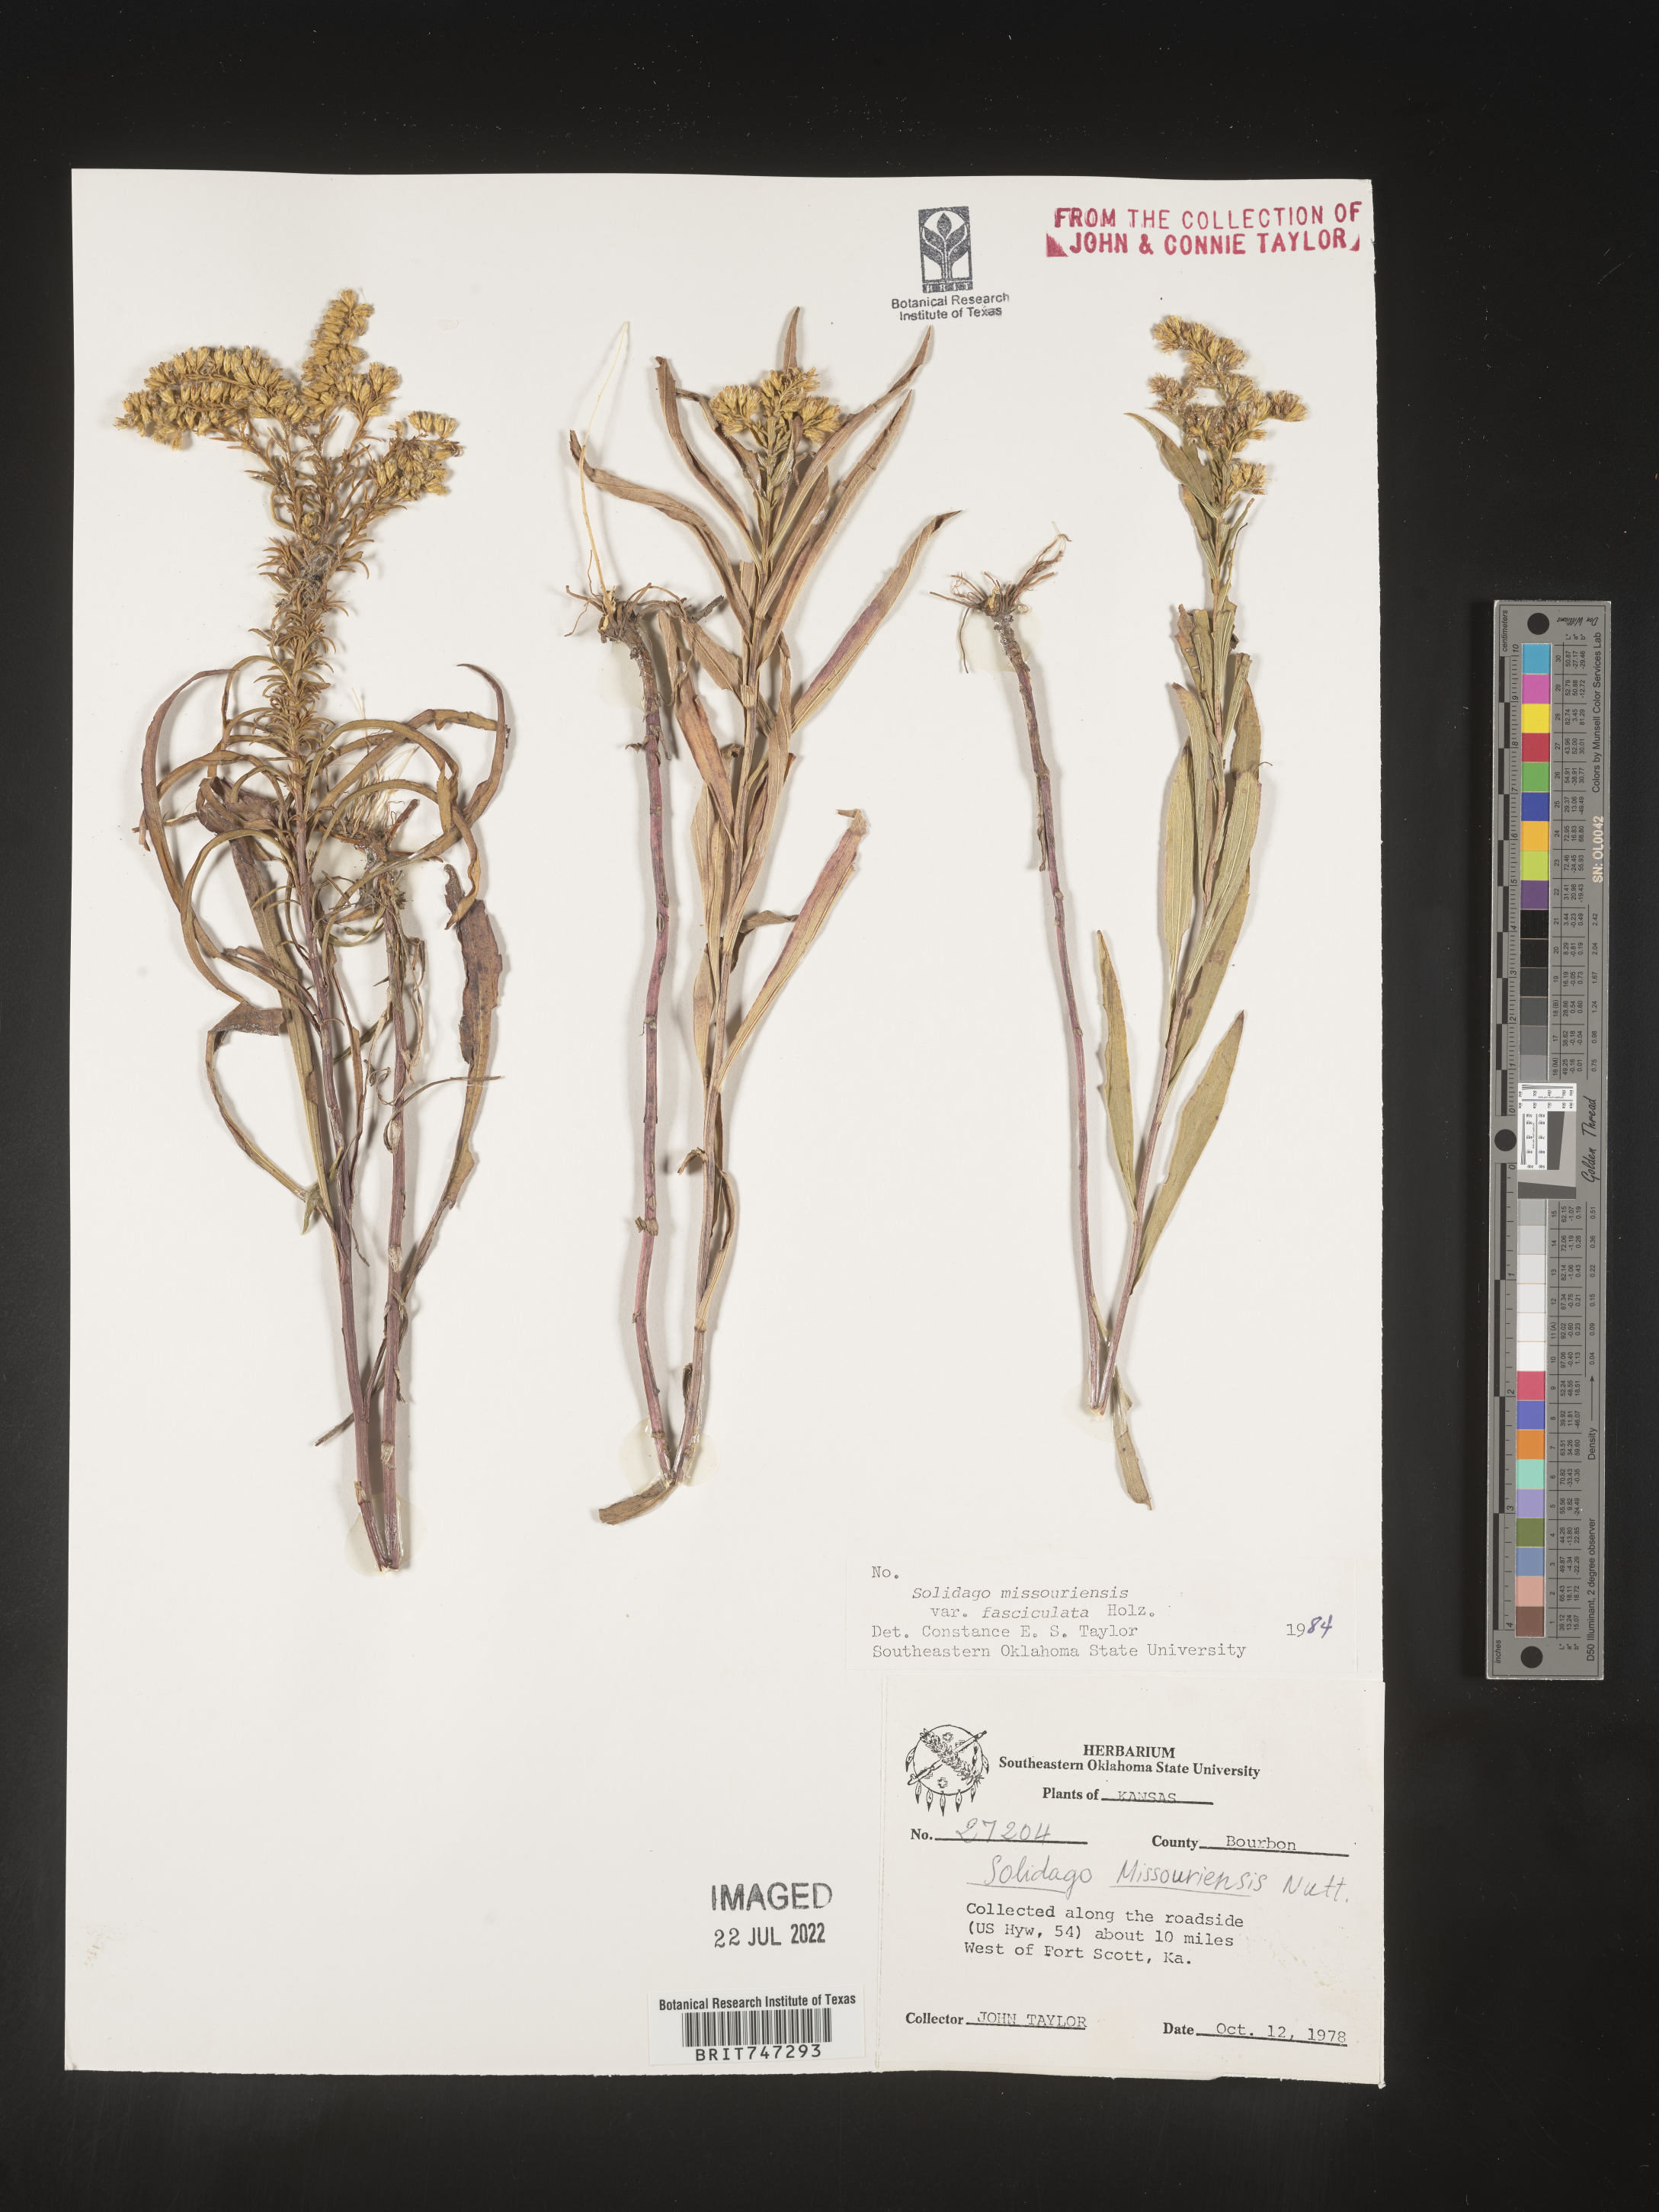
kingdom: Plantae
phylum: Tracheophyta
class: Magnoliopsida
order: Asterales
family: Asteraceae
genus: Solidago
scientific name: Solidago missouriensis
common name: Prairie goldenrod
